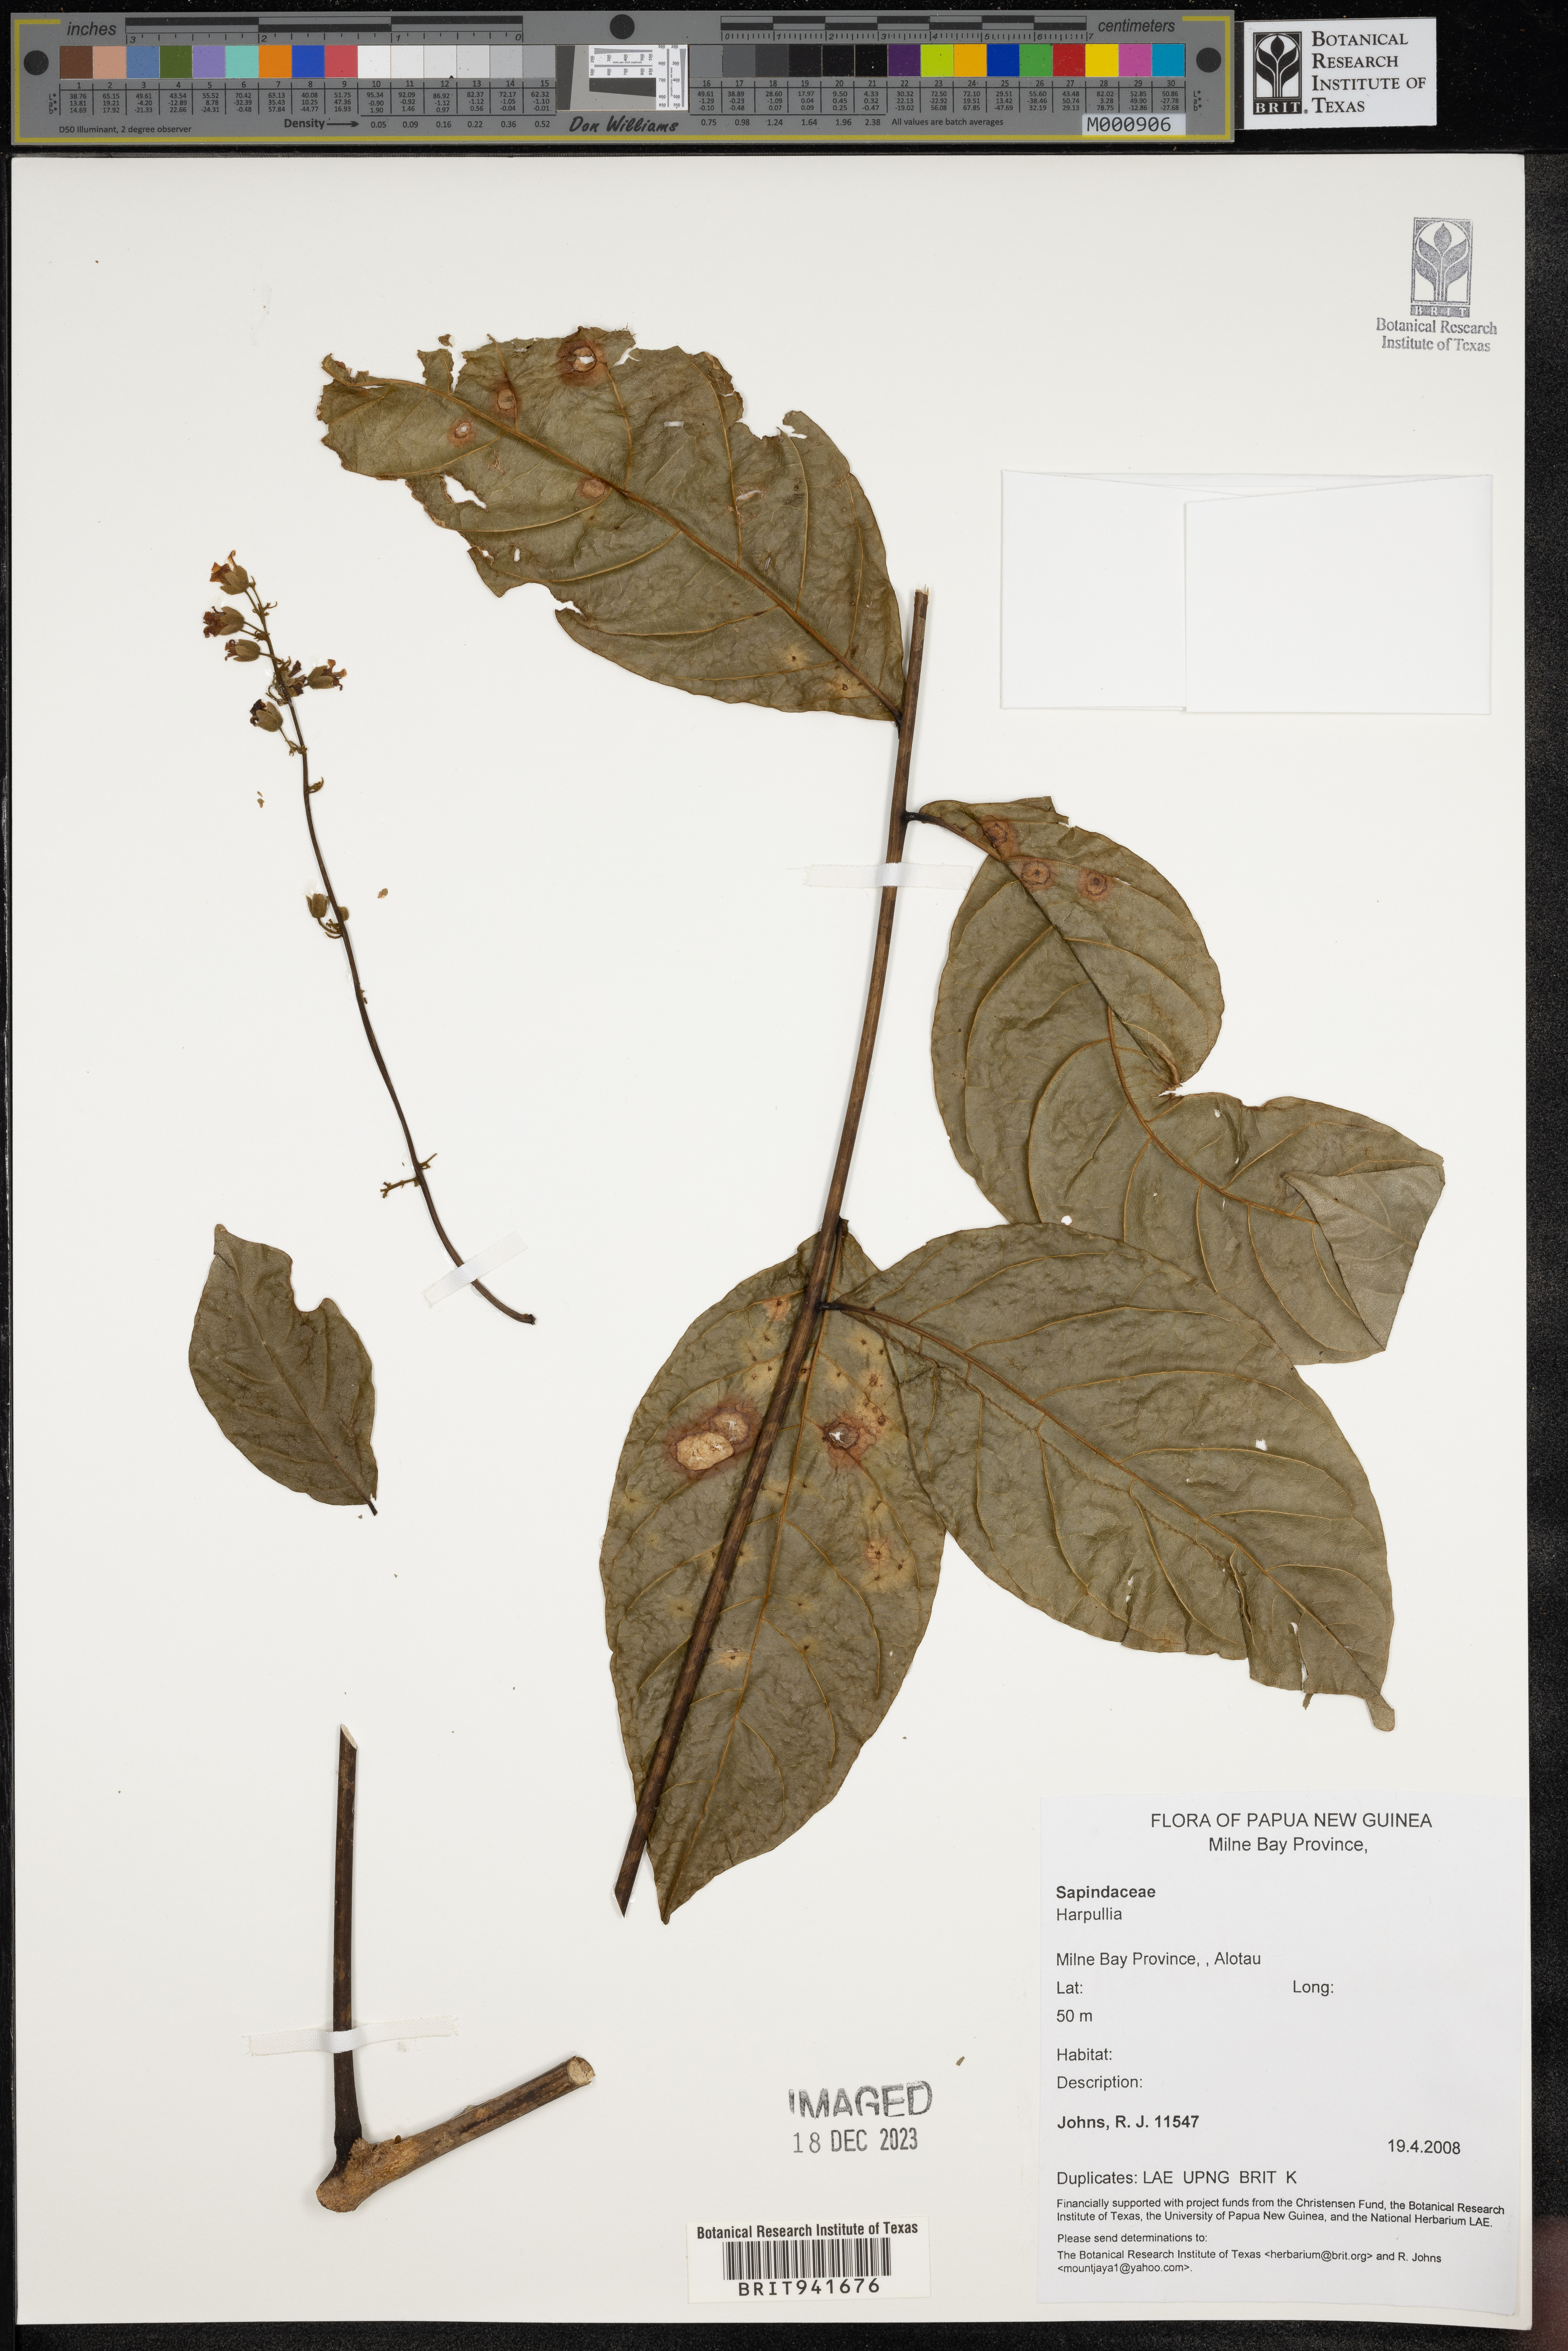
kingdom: Plantae
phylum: Tracheophyta
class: Magnoliopsida
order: Sapindales
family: Sapindaceae
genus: Harpullia
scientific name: Harpullia
